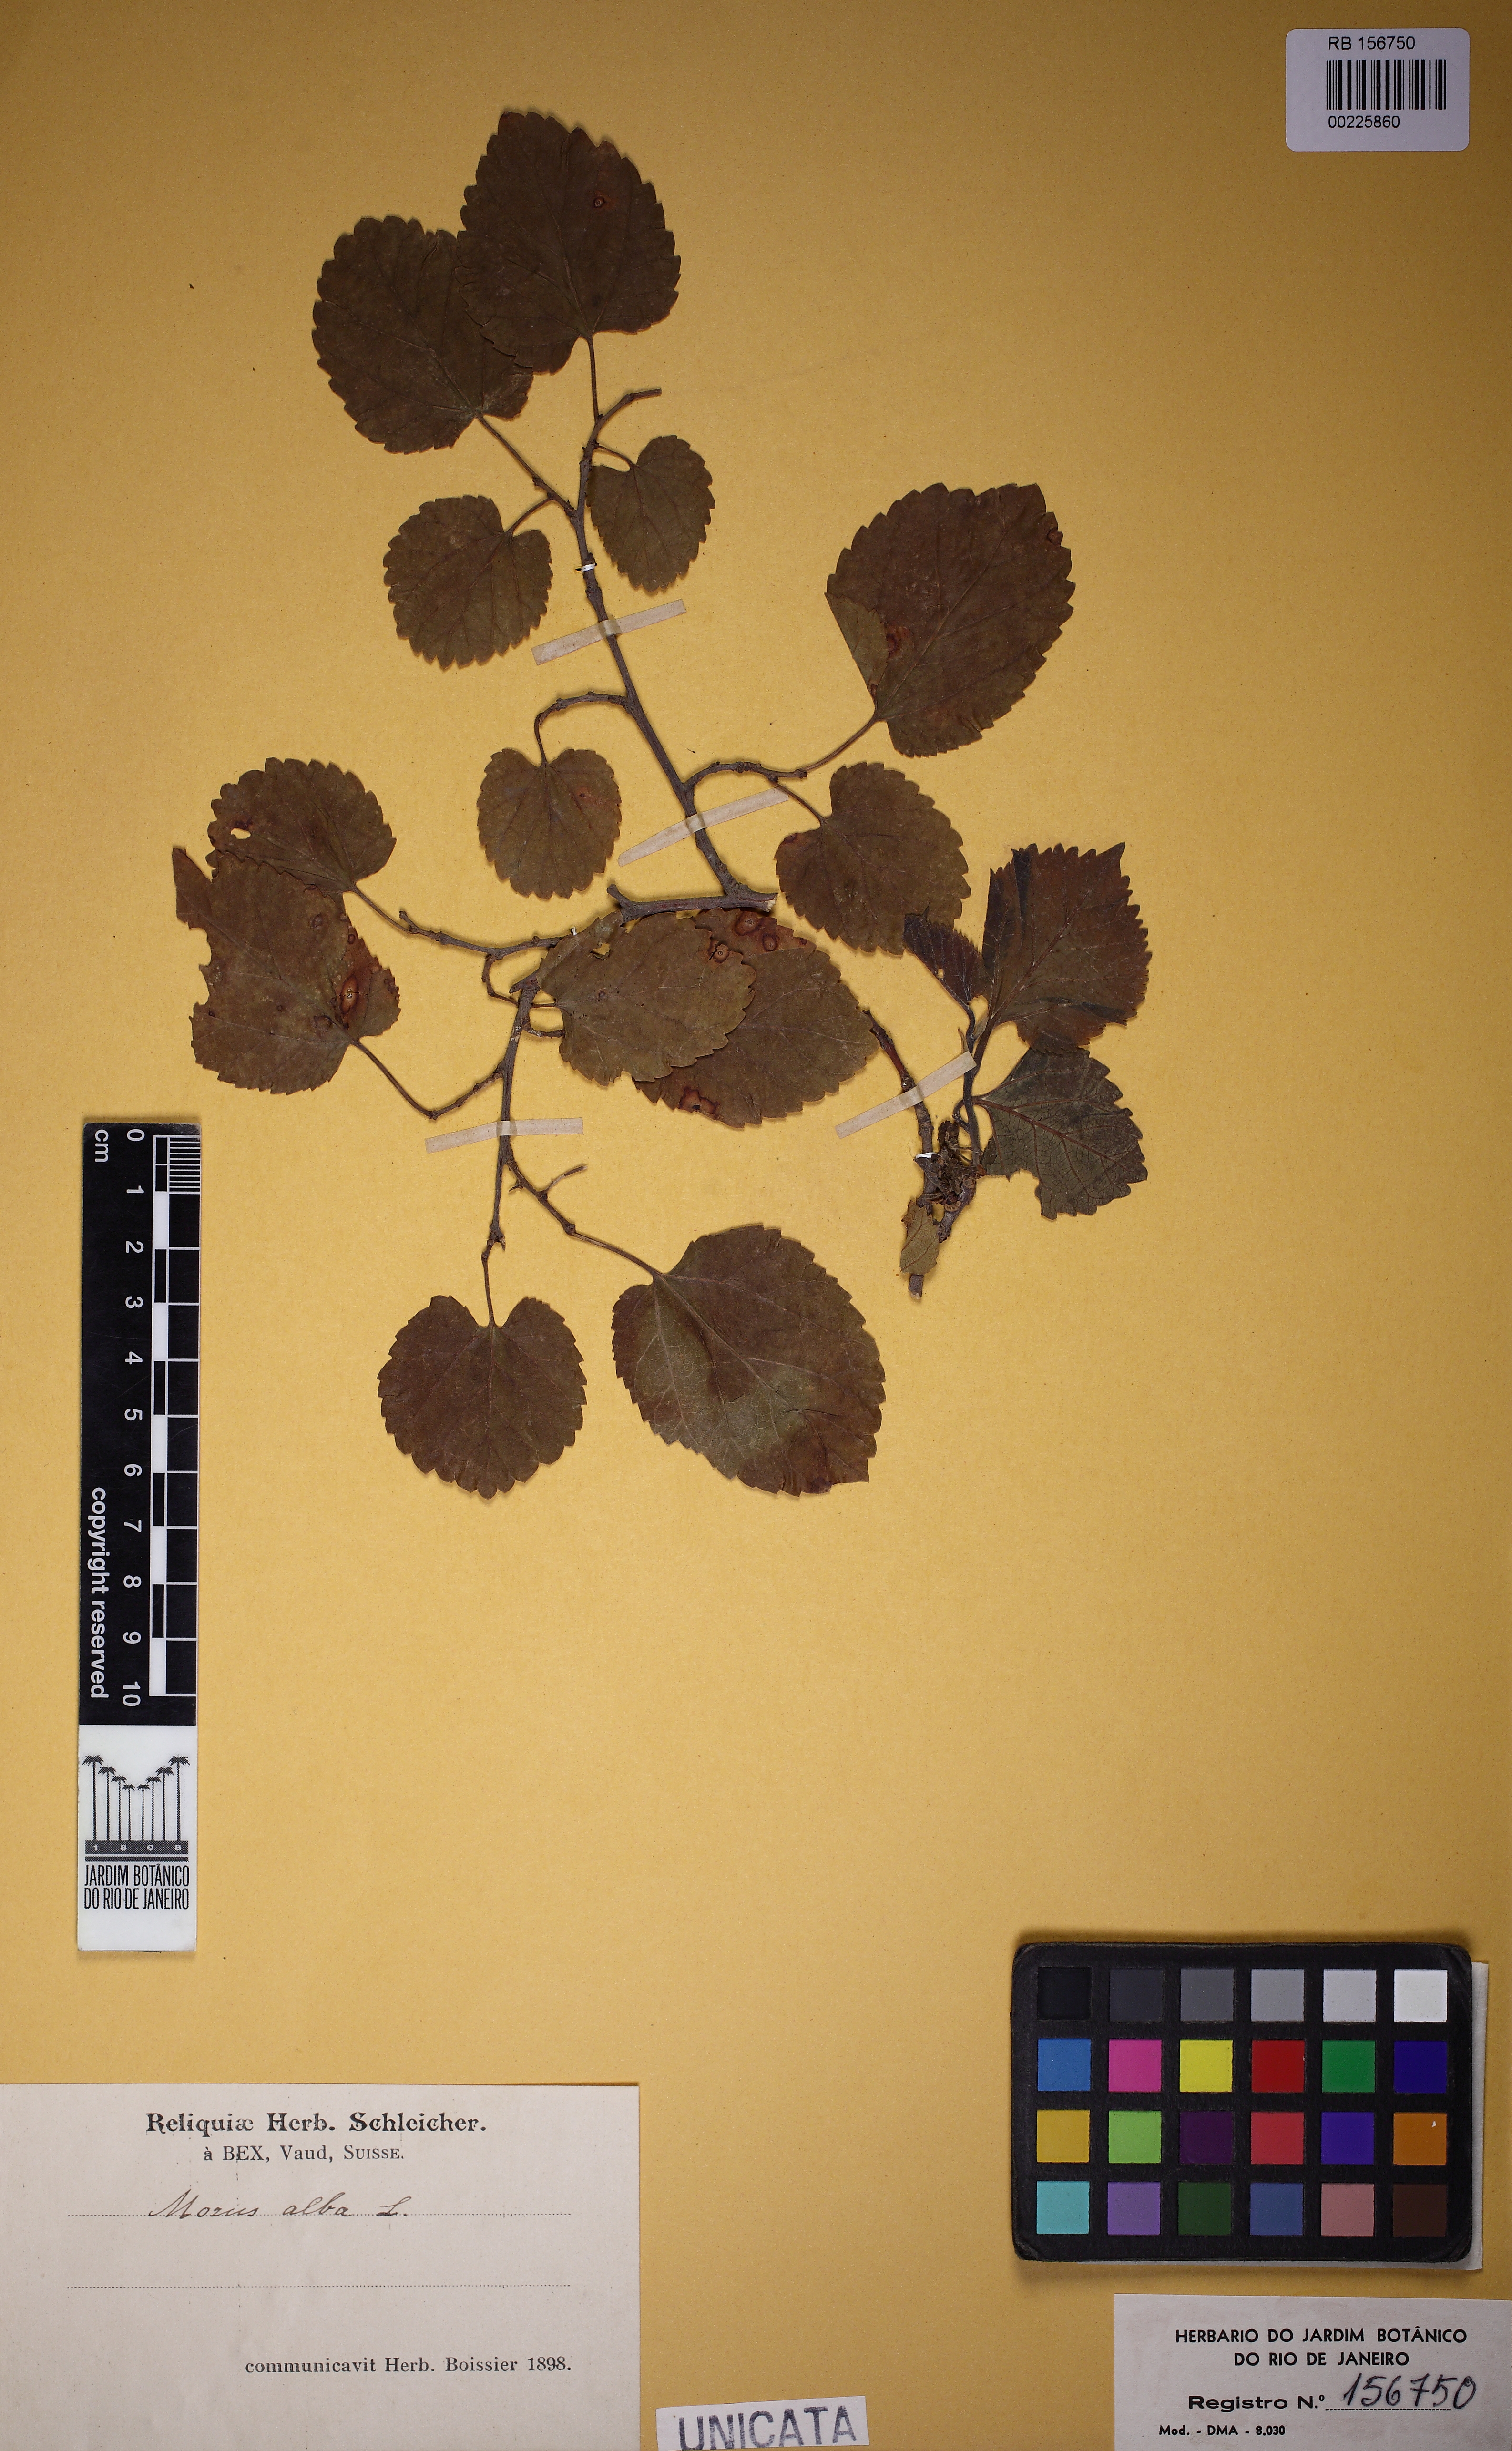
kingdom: Plantae
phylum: Tracheophyta
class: Magnoliopsida
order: Rosales
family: Moraceae
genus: Morus
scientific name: Morus alba
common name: White mulberry
